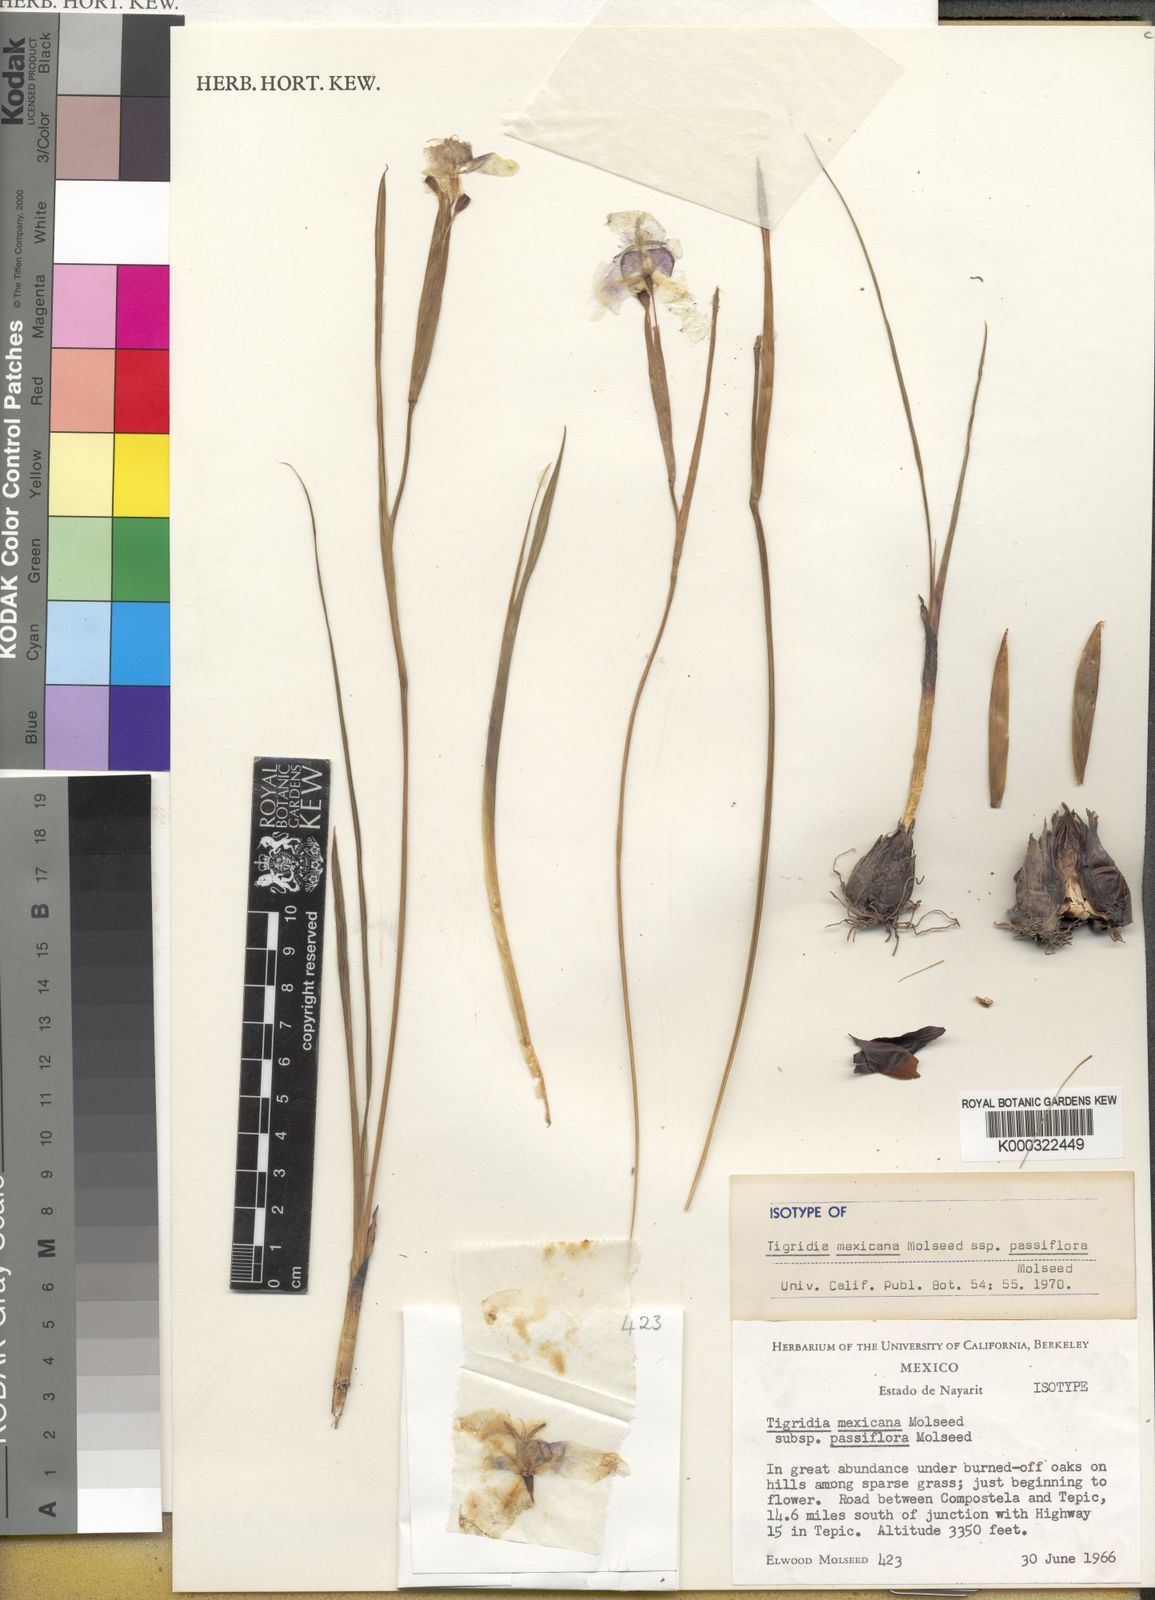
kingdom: Plantae
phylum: Tracheophyta
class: Liliopsida
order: Asparagales
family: Iridaceae
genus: Tigridia
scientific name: Tigridia mexicana
